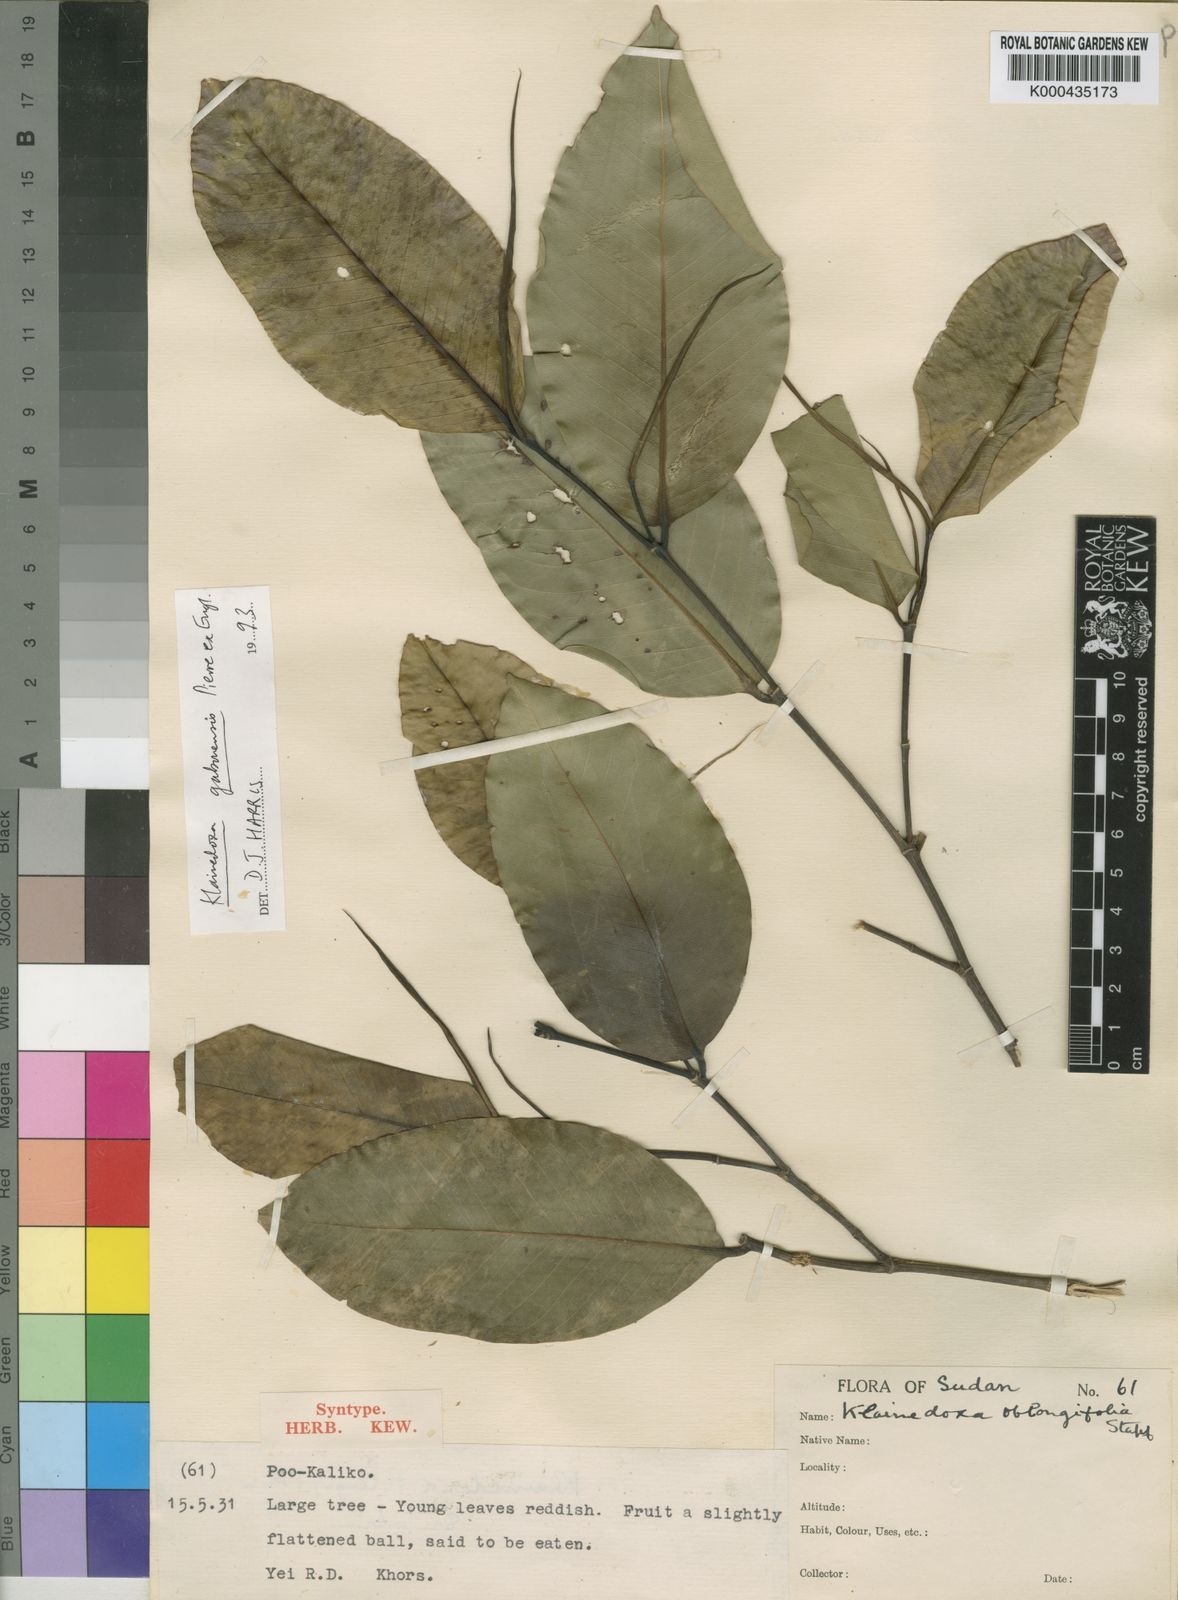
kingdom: Plantae
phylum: Tracheophyta
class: Magnoliopsida
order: Malpighiales
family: Irvingiaceae
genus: Klainedoxa
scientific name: Klainedoxa gabonensis
